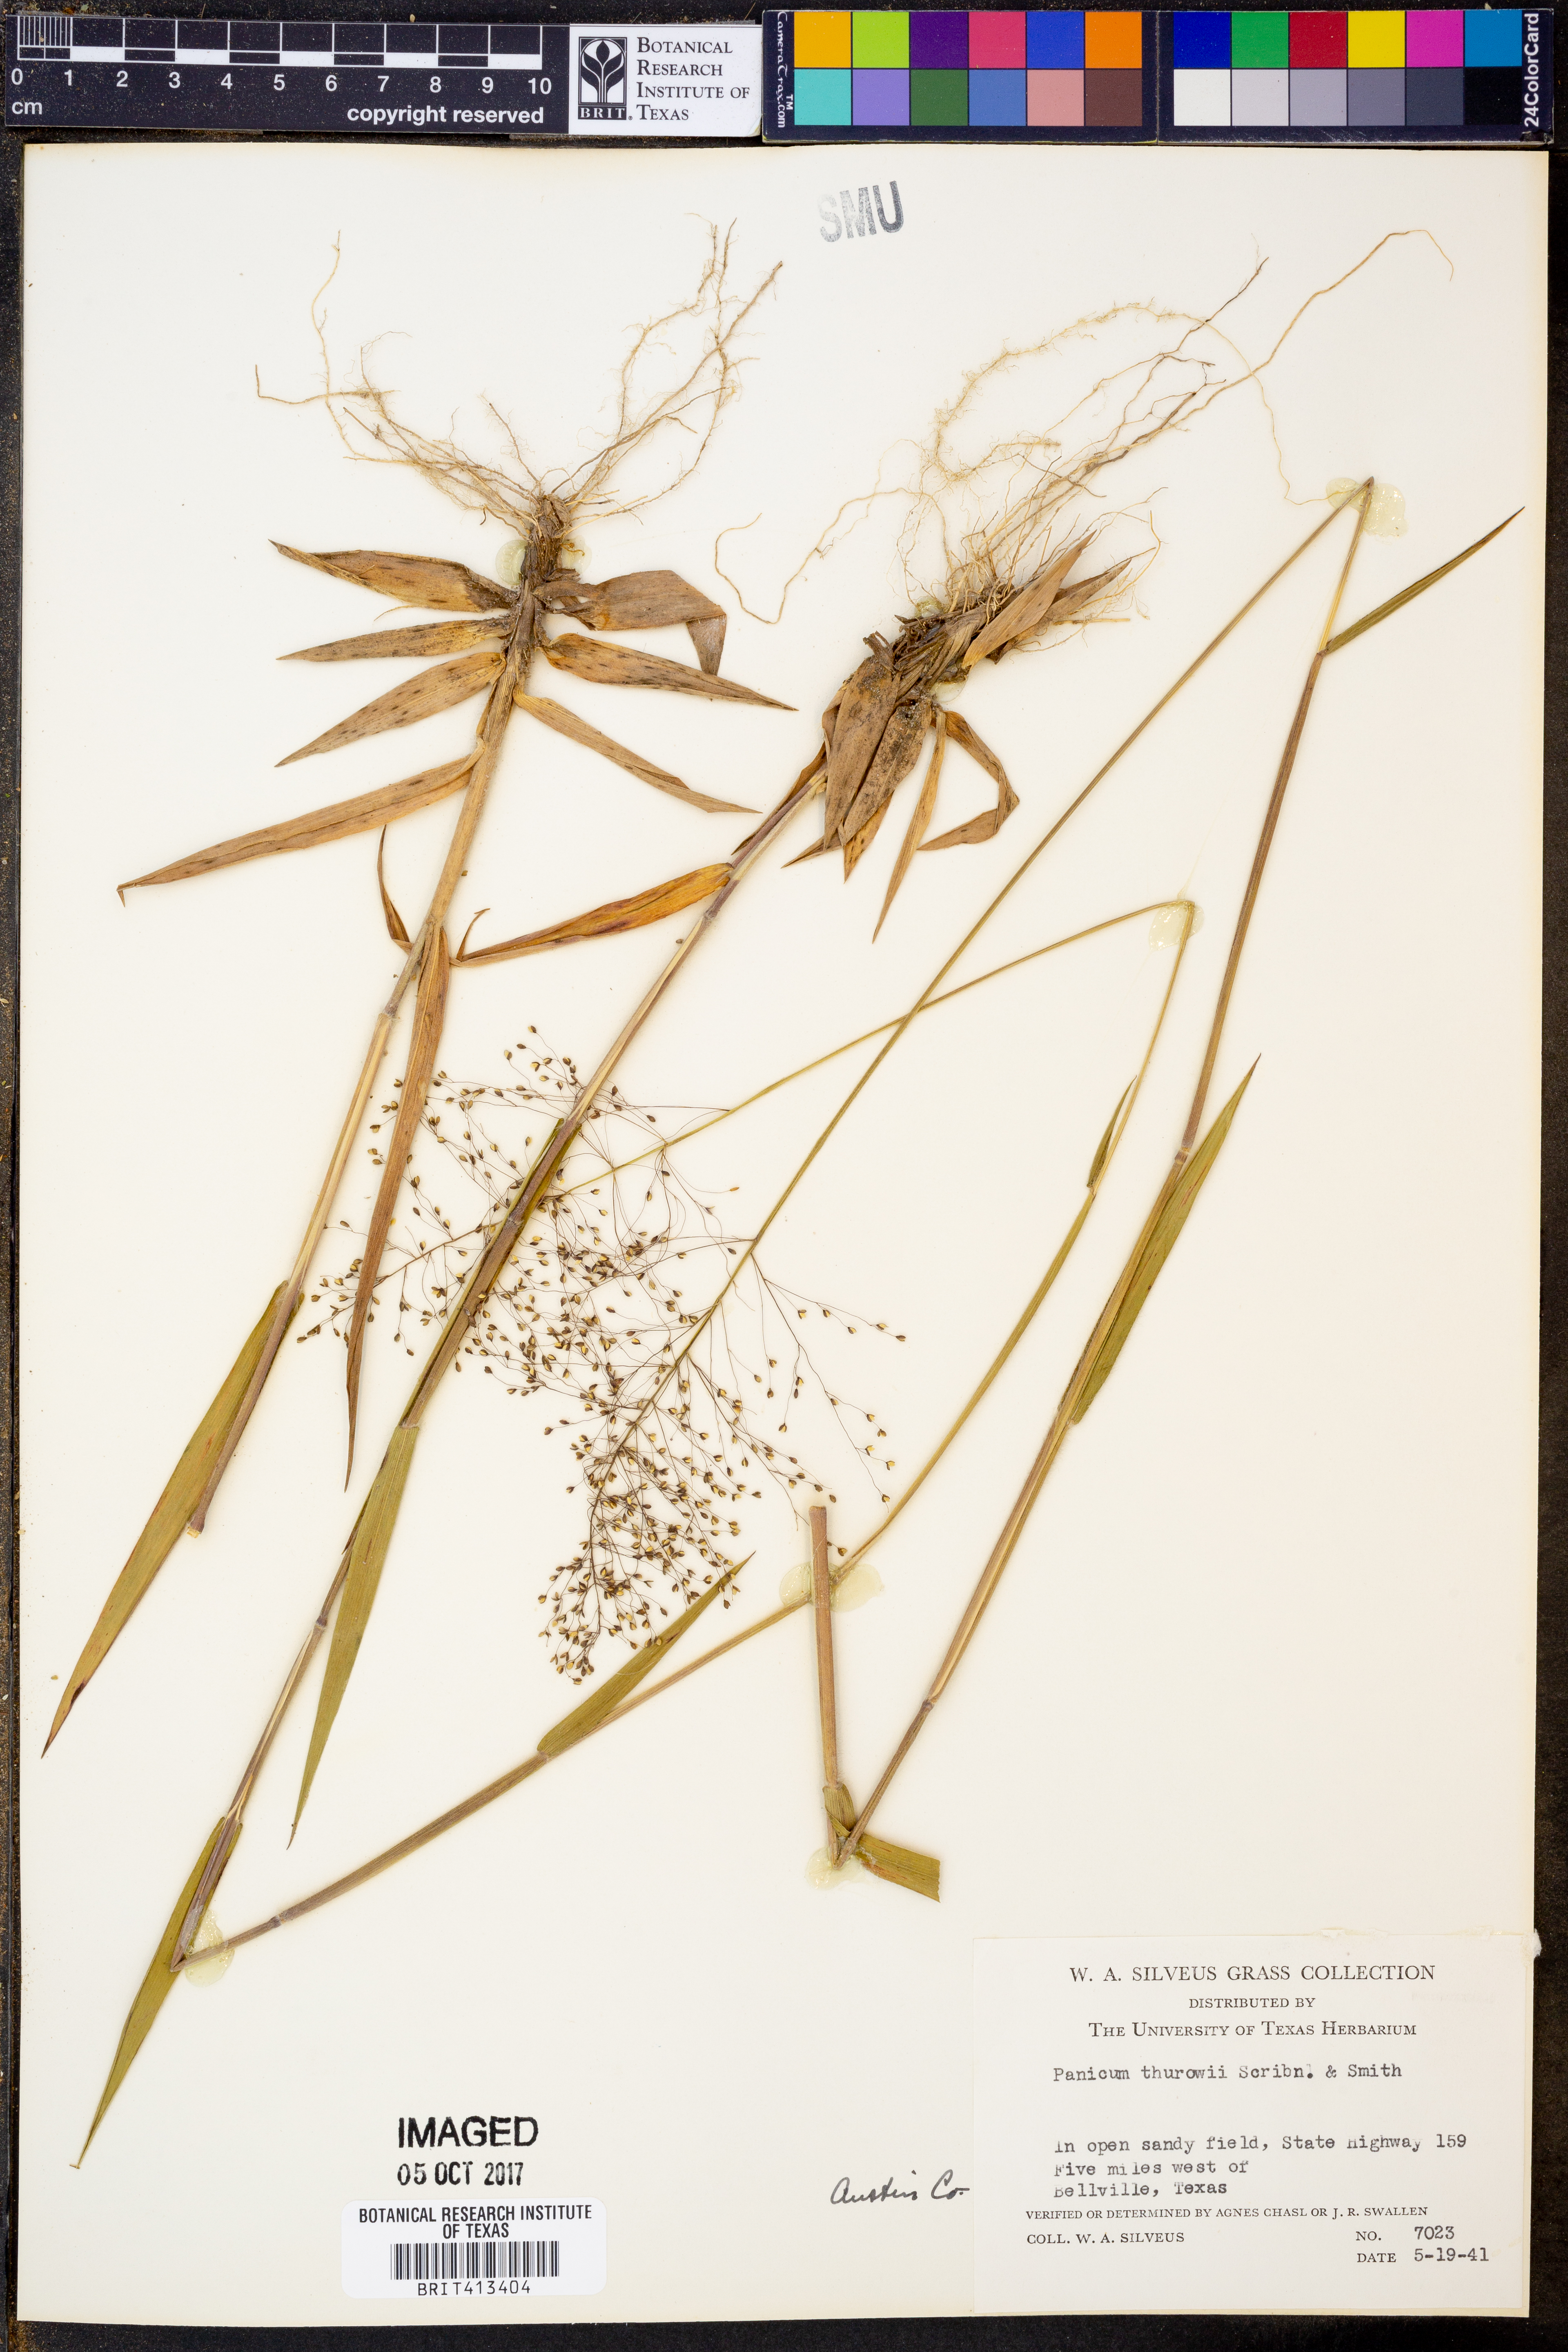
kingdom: Plantae
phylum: Tracheophyta
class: Liliopsida
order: Poales
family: Poaceae
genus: Dichanthelium
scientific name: Dichanthelium acuminatum
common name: Hairy panic grass
